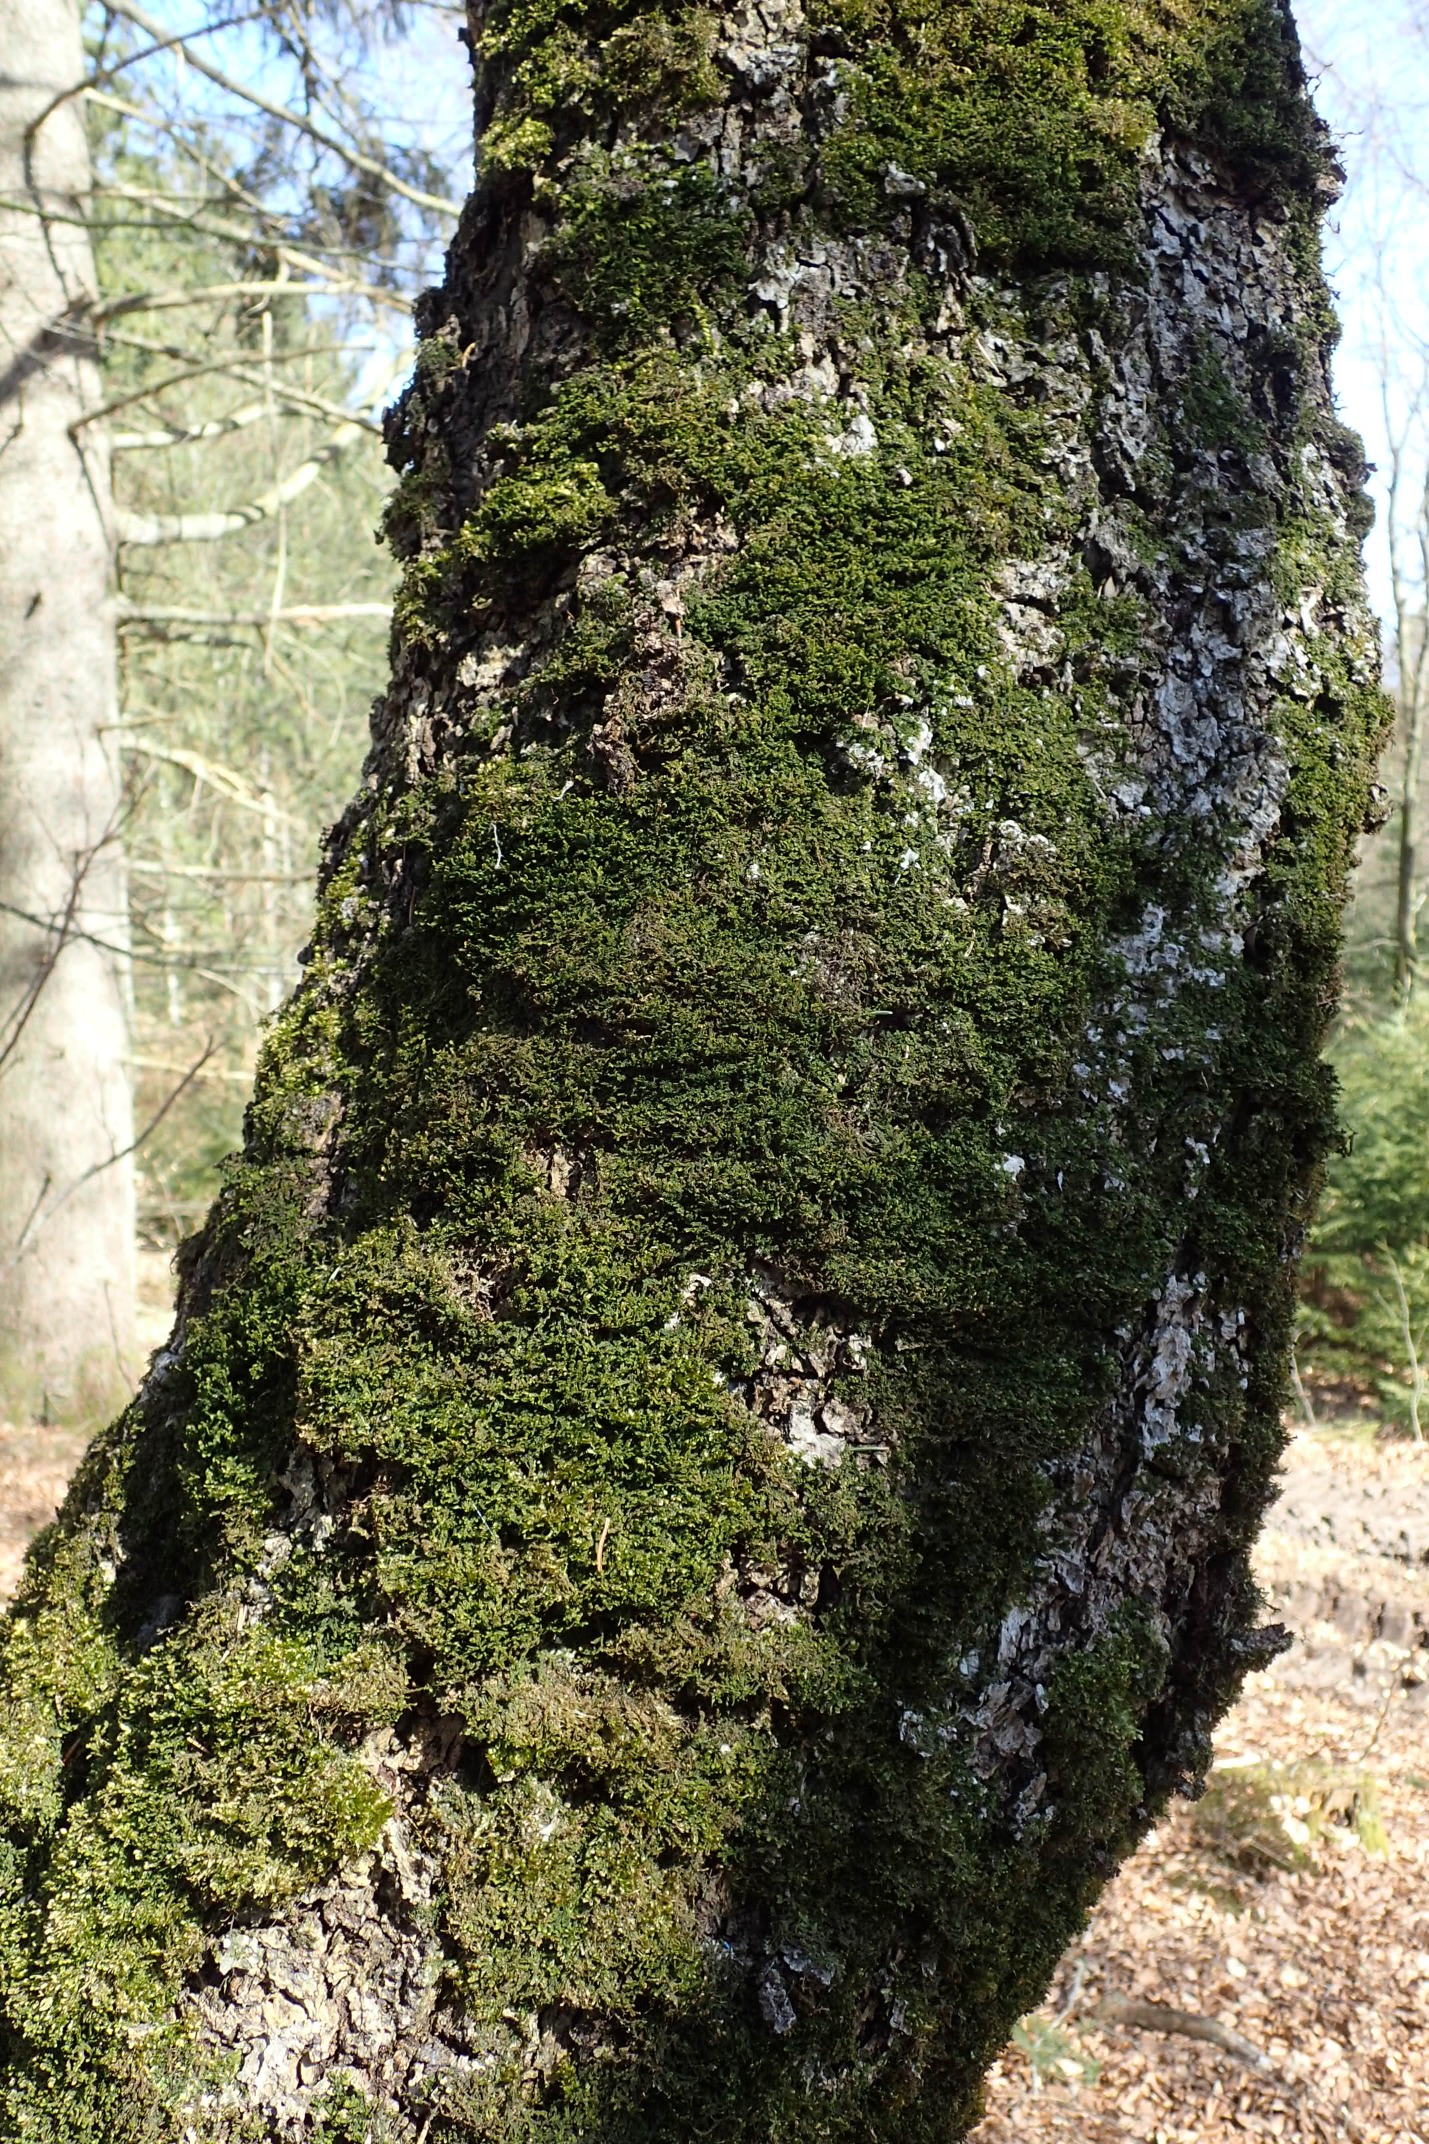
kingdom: Plantae
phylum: Marchantiophyta
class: Jungermanniopsida
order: Porellales
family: Porellaceae
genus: Porella
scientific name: Porella platyphylla
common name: Almindelig skælryg
